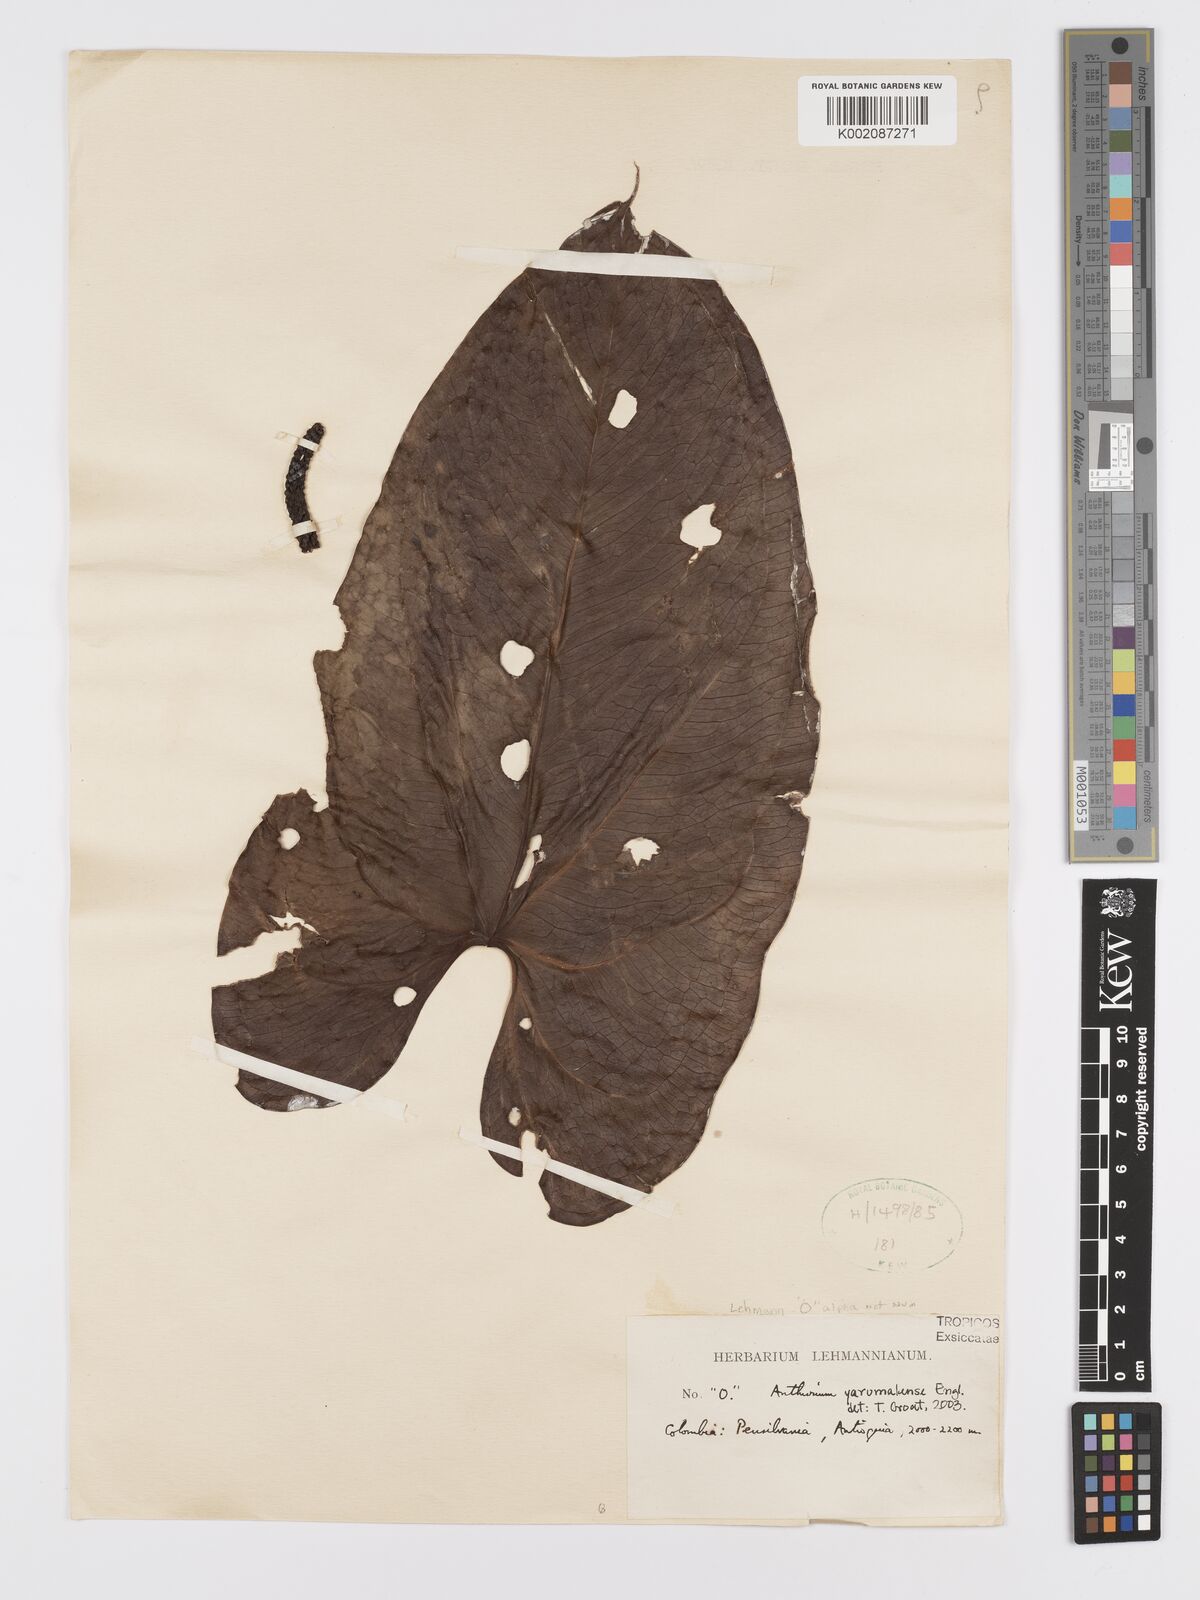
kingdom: Plantae
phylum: Tracheophyta
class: Liliopsida
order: Alismatales
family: Araceae
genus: Anthurium
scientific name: Anthurium yarumalense
